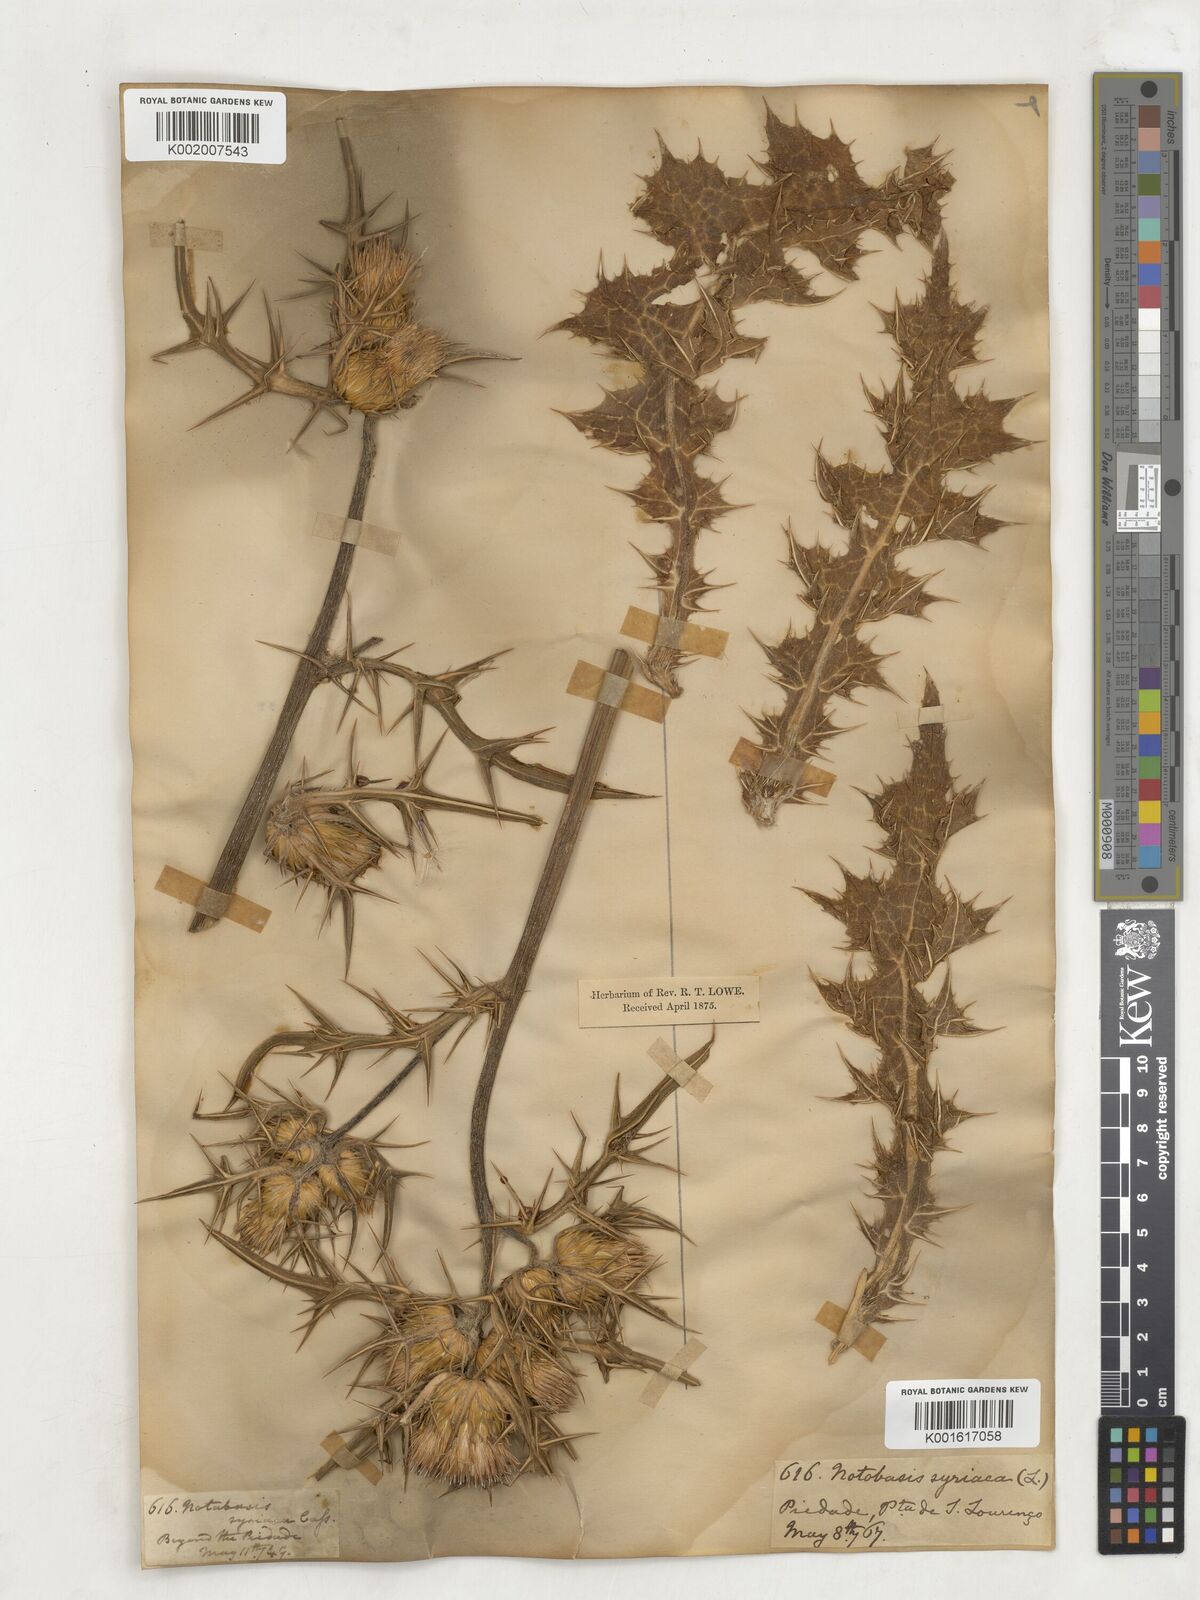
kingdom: Plantae
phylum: Tracheophyta
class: Magnoliopsida
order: Asterales
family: Asteraceae
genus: Notobasis
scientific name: Notobasis syriaca
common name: Syrian thistle
